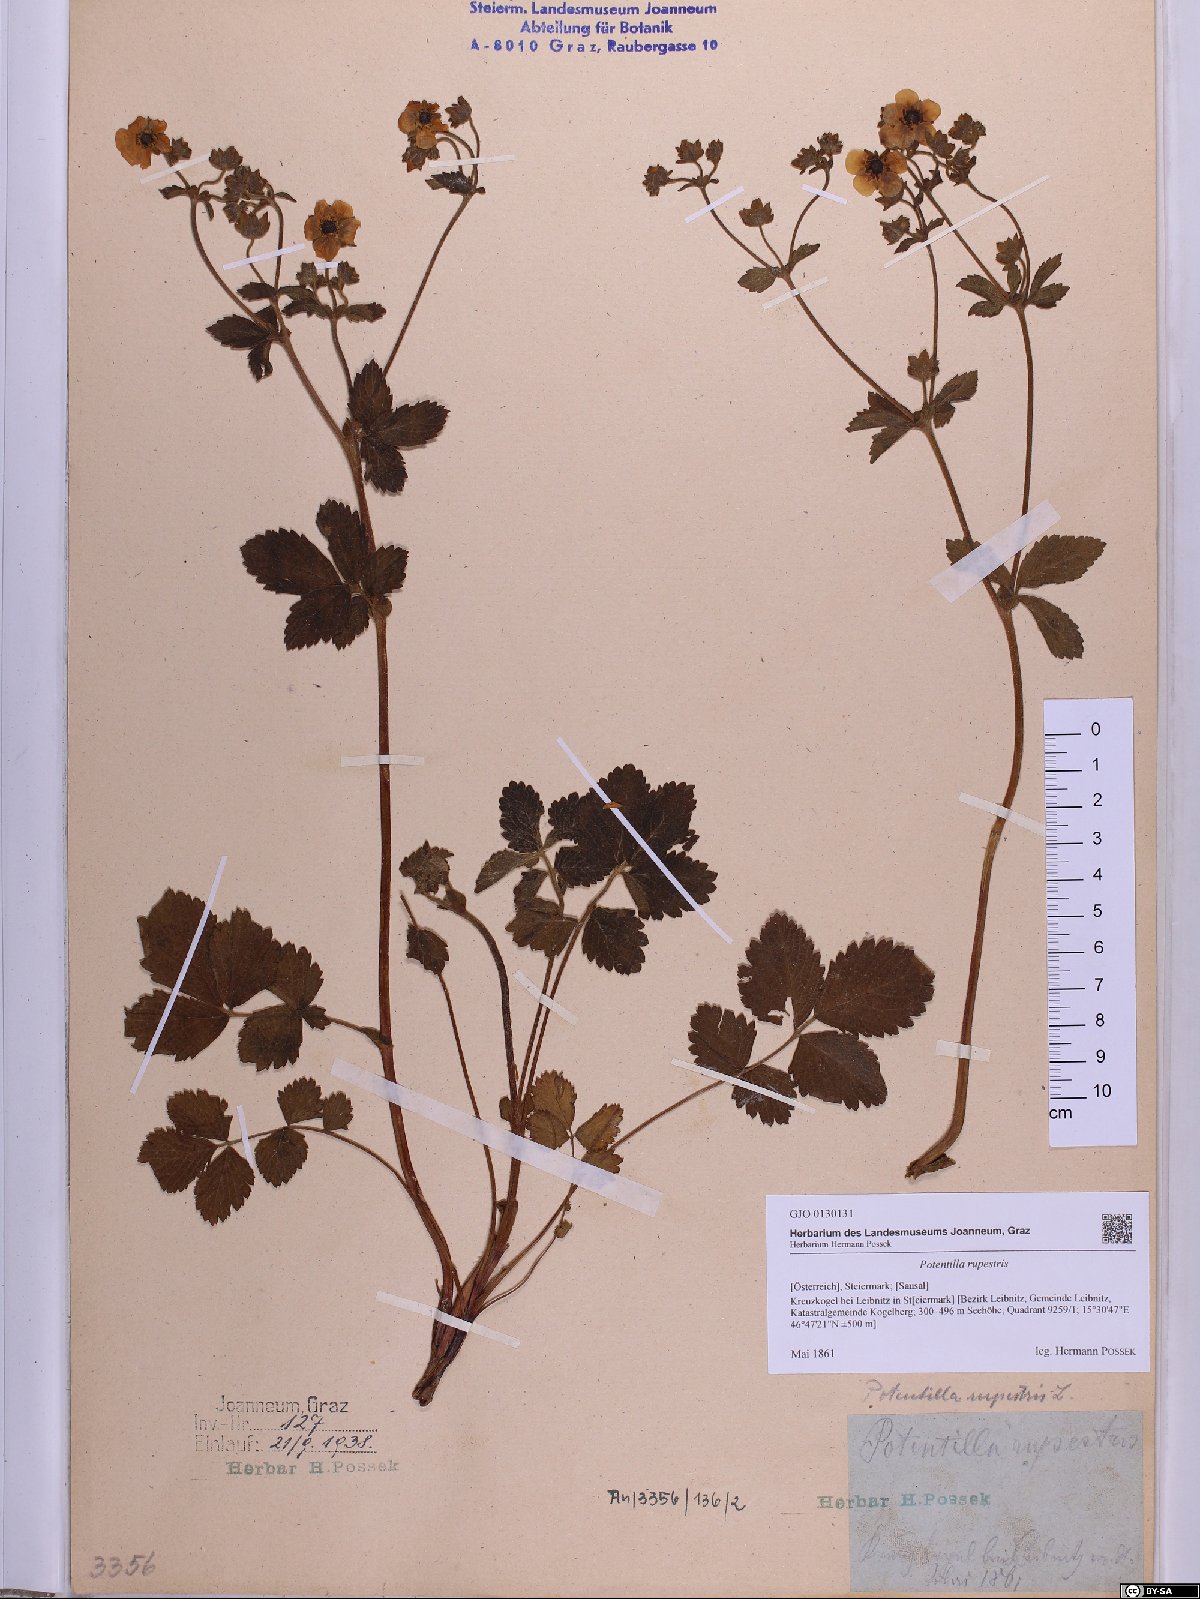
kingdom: Plantae
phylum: Tracheophyta
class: Magnoliopsida
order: Rosales
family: Rosaceae
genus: Drymocallis
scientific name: Drymocallis rupestris
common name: Rock cinquefoil
